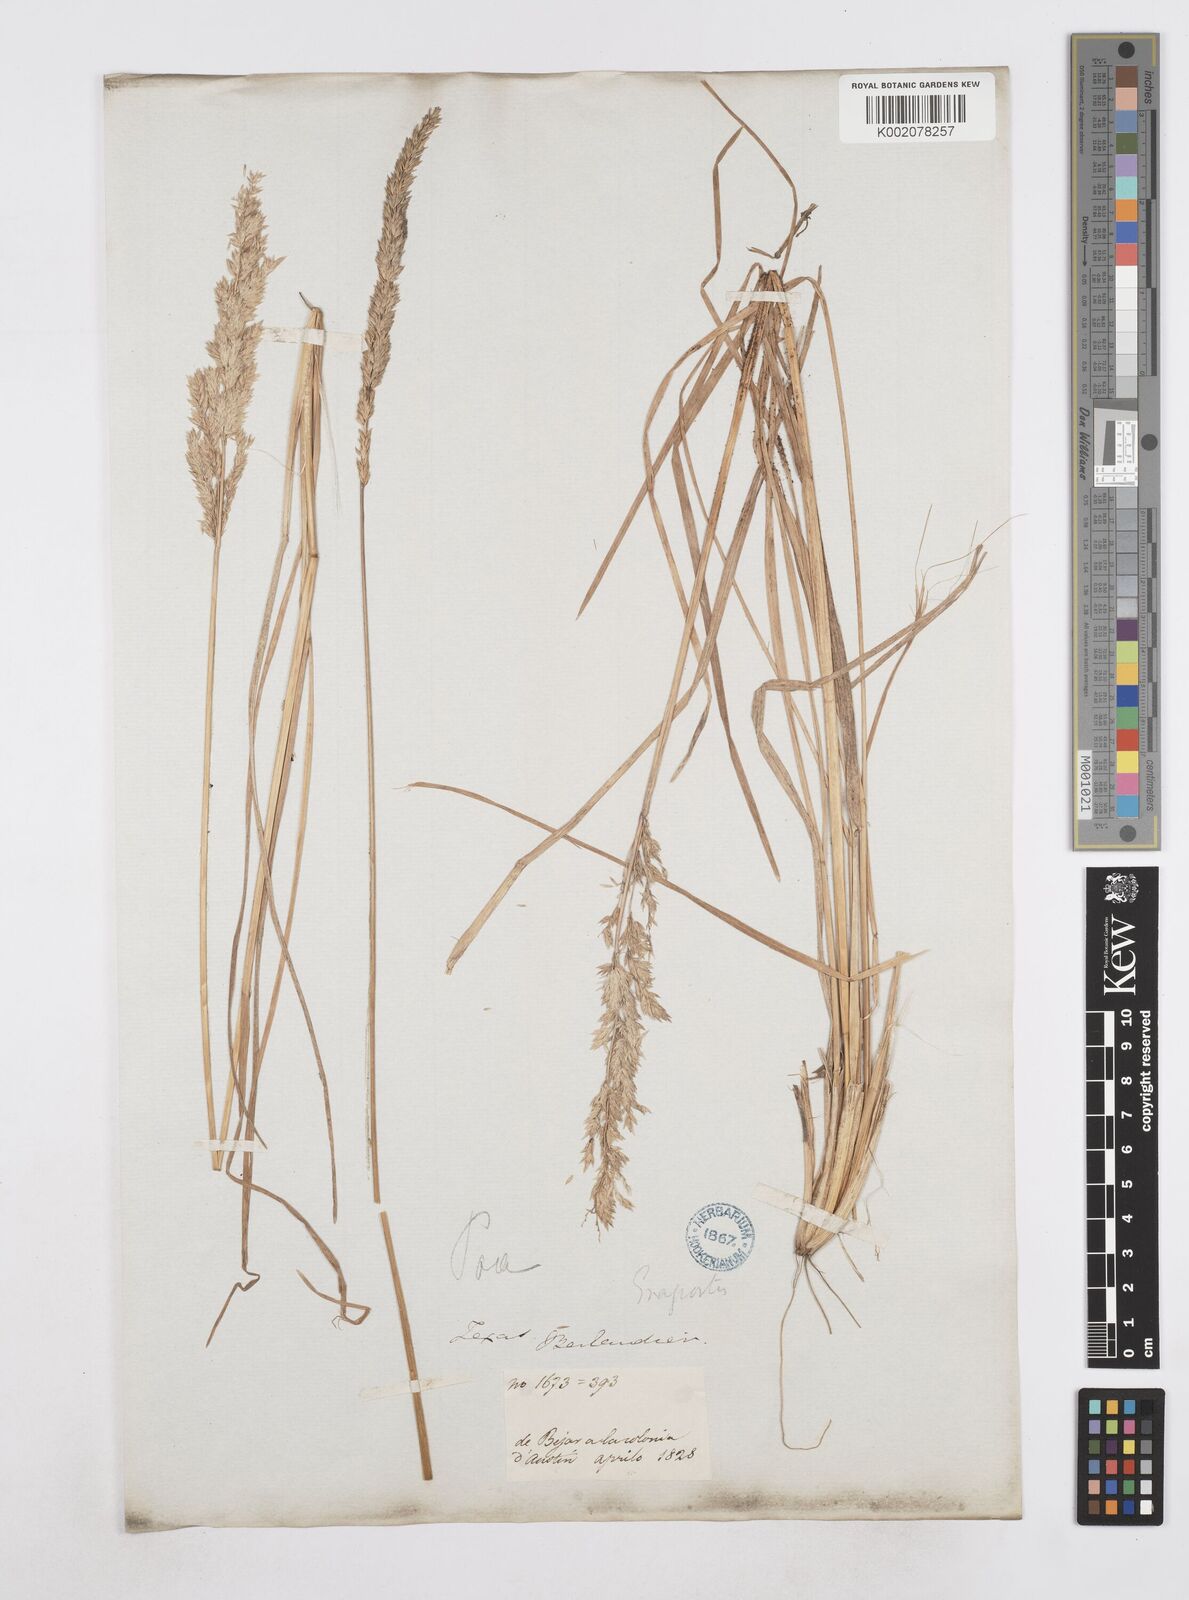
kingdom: Plantae
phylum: Tracheophyta
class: Liliopsida
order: Poales
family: Poaceae
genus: Poa
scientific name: Poa
